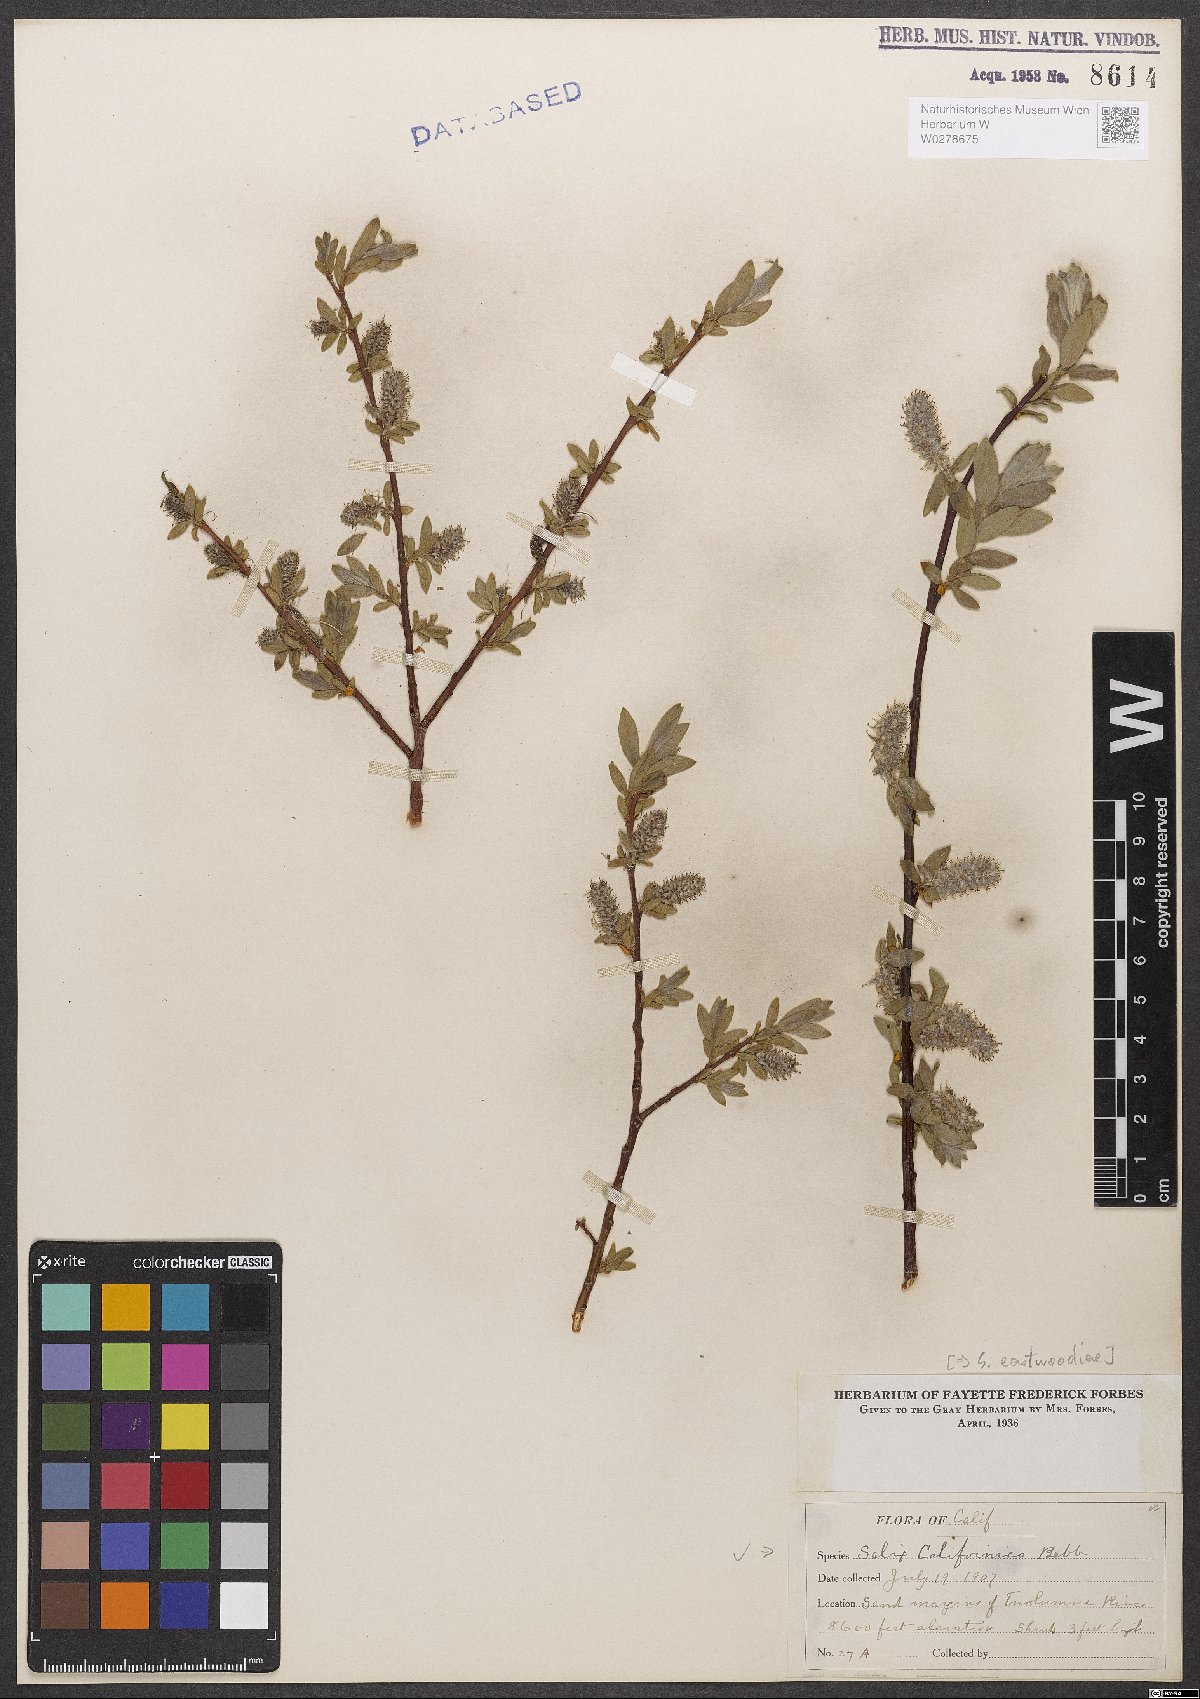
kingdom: Plantae
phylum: Tracheophyta
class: Magnoliopsida
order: Malpighiales
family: Salicaceae
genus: Salix
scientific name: Salix eastwoodiae
